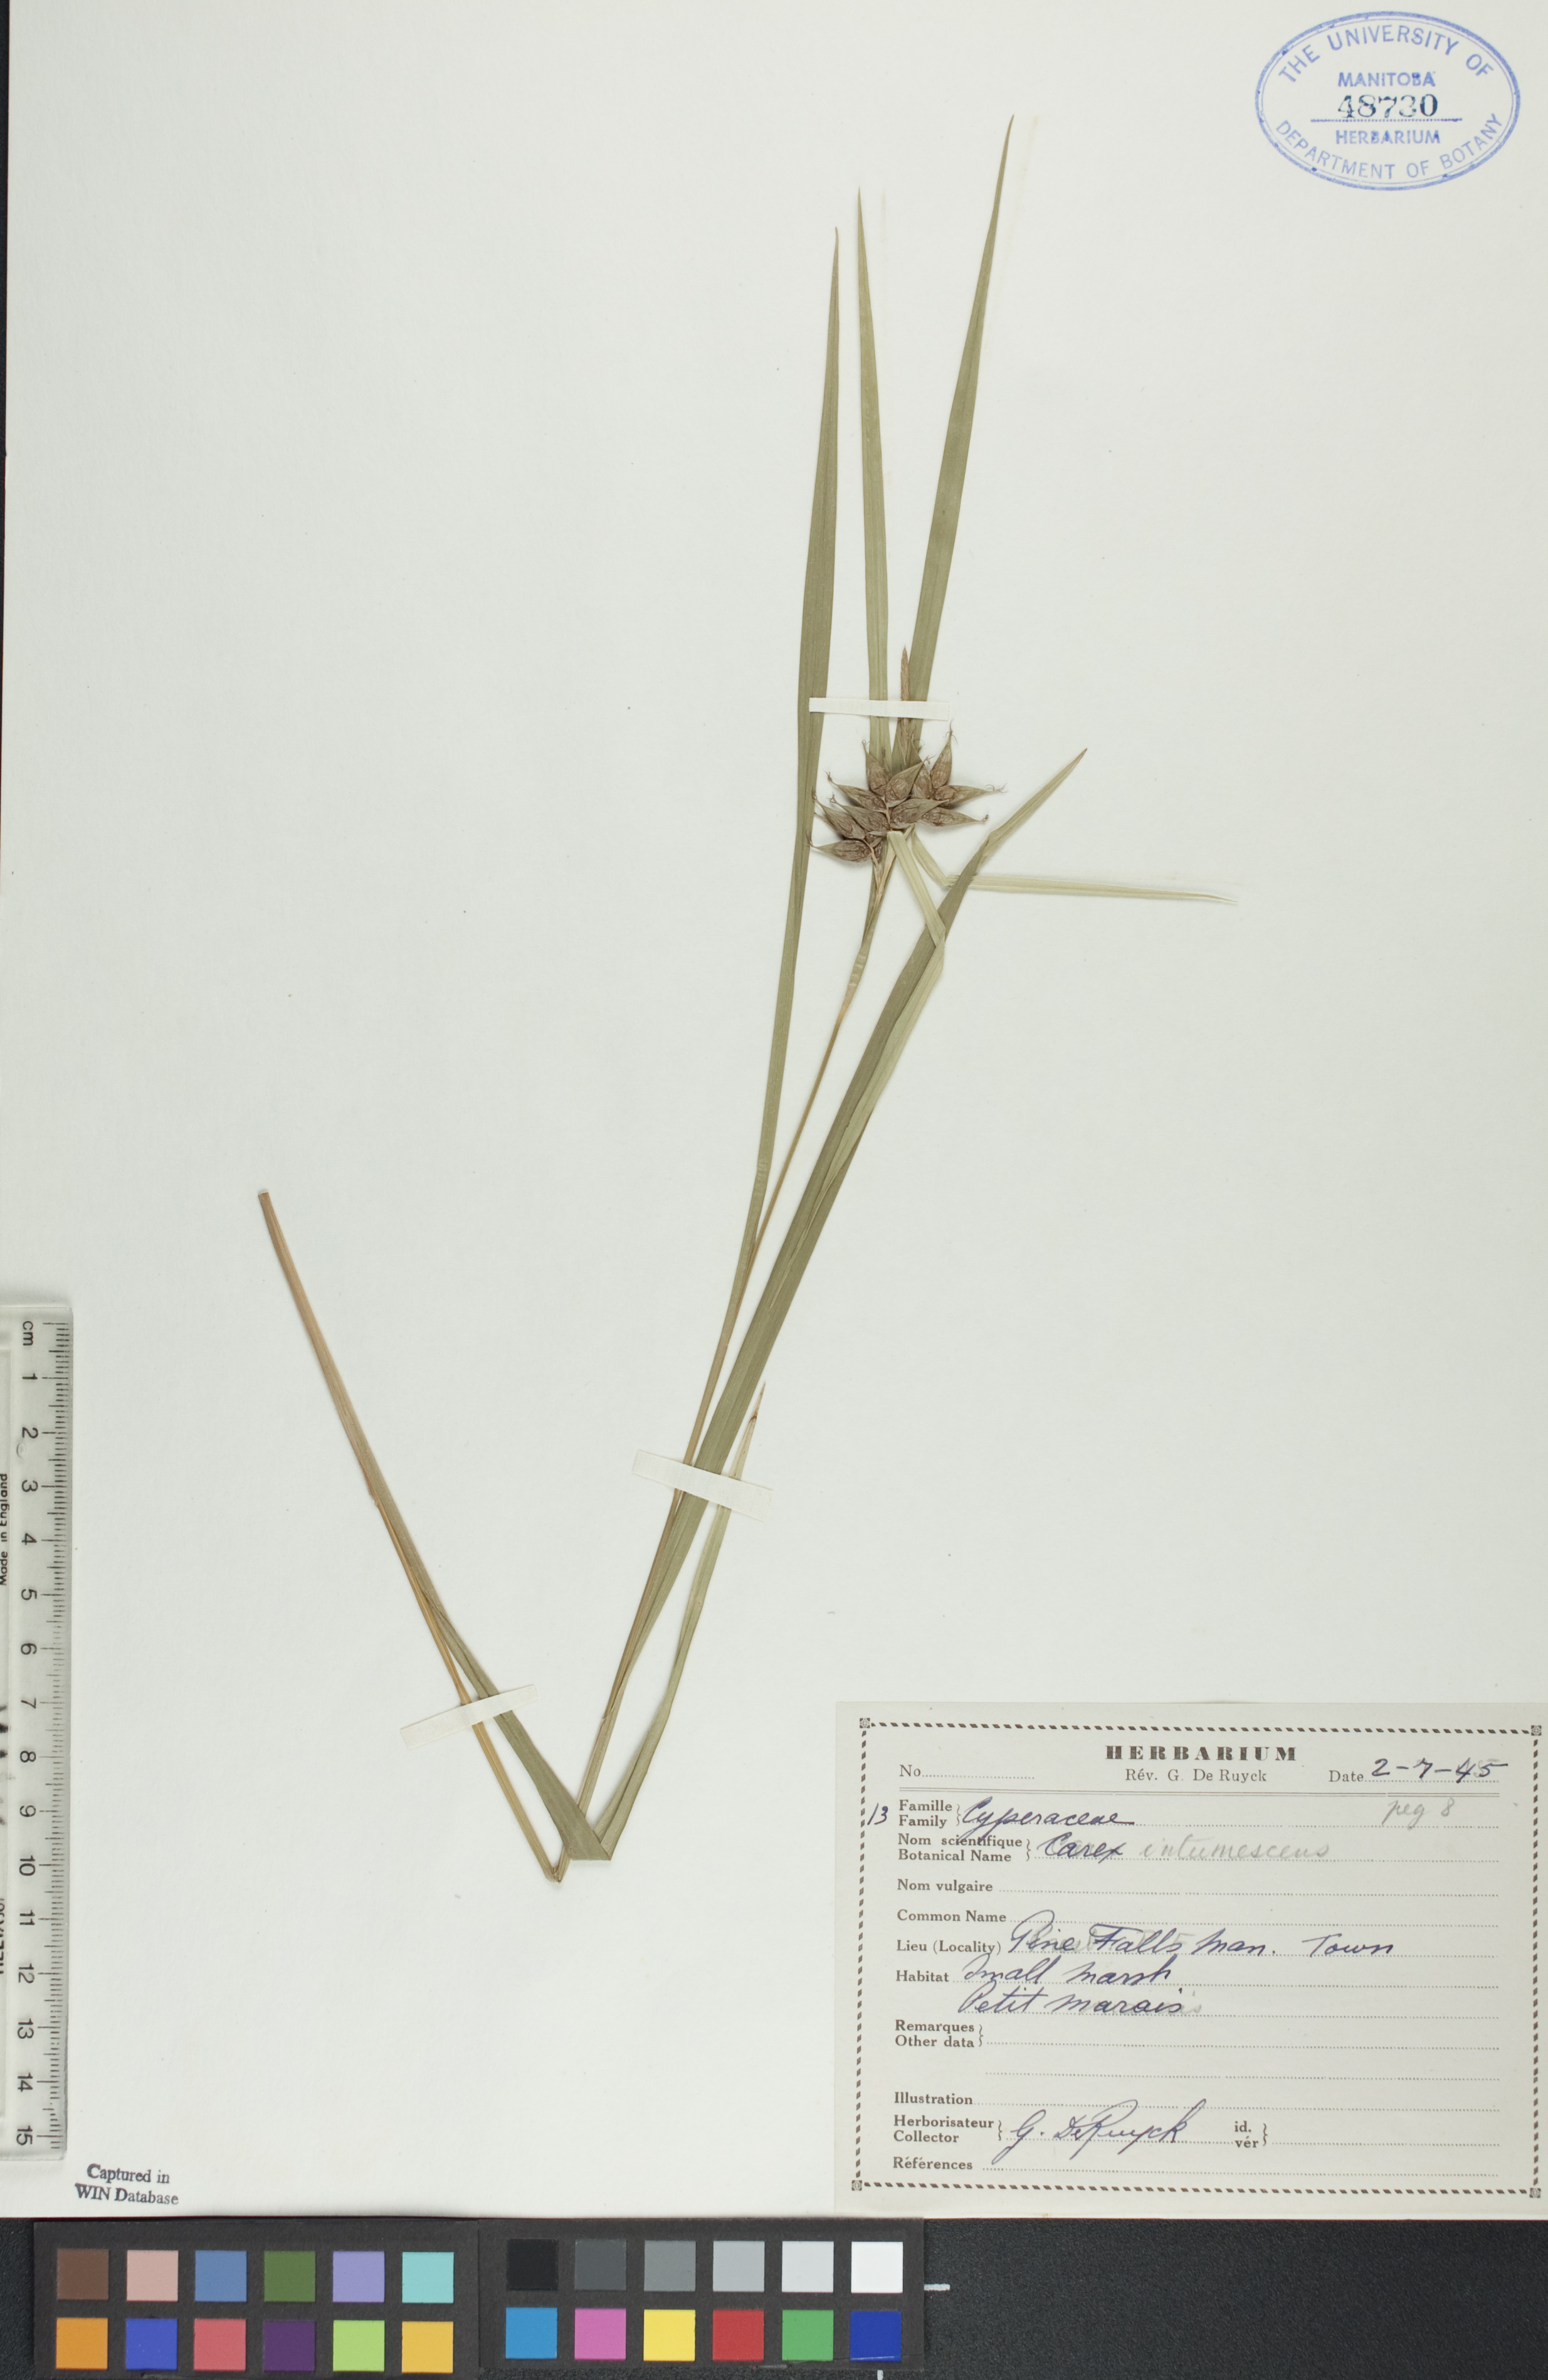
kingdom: Plantae
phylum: Tracheophyta
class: Liliopsida
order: Poales
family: Cyperaceae
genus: Carex
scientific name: Carex intumescens
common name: Greater bladder sedge
